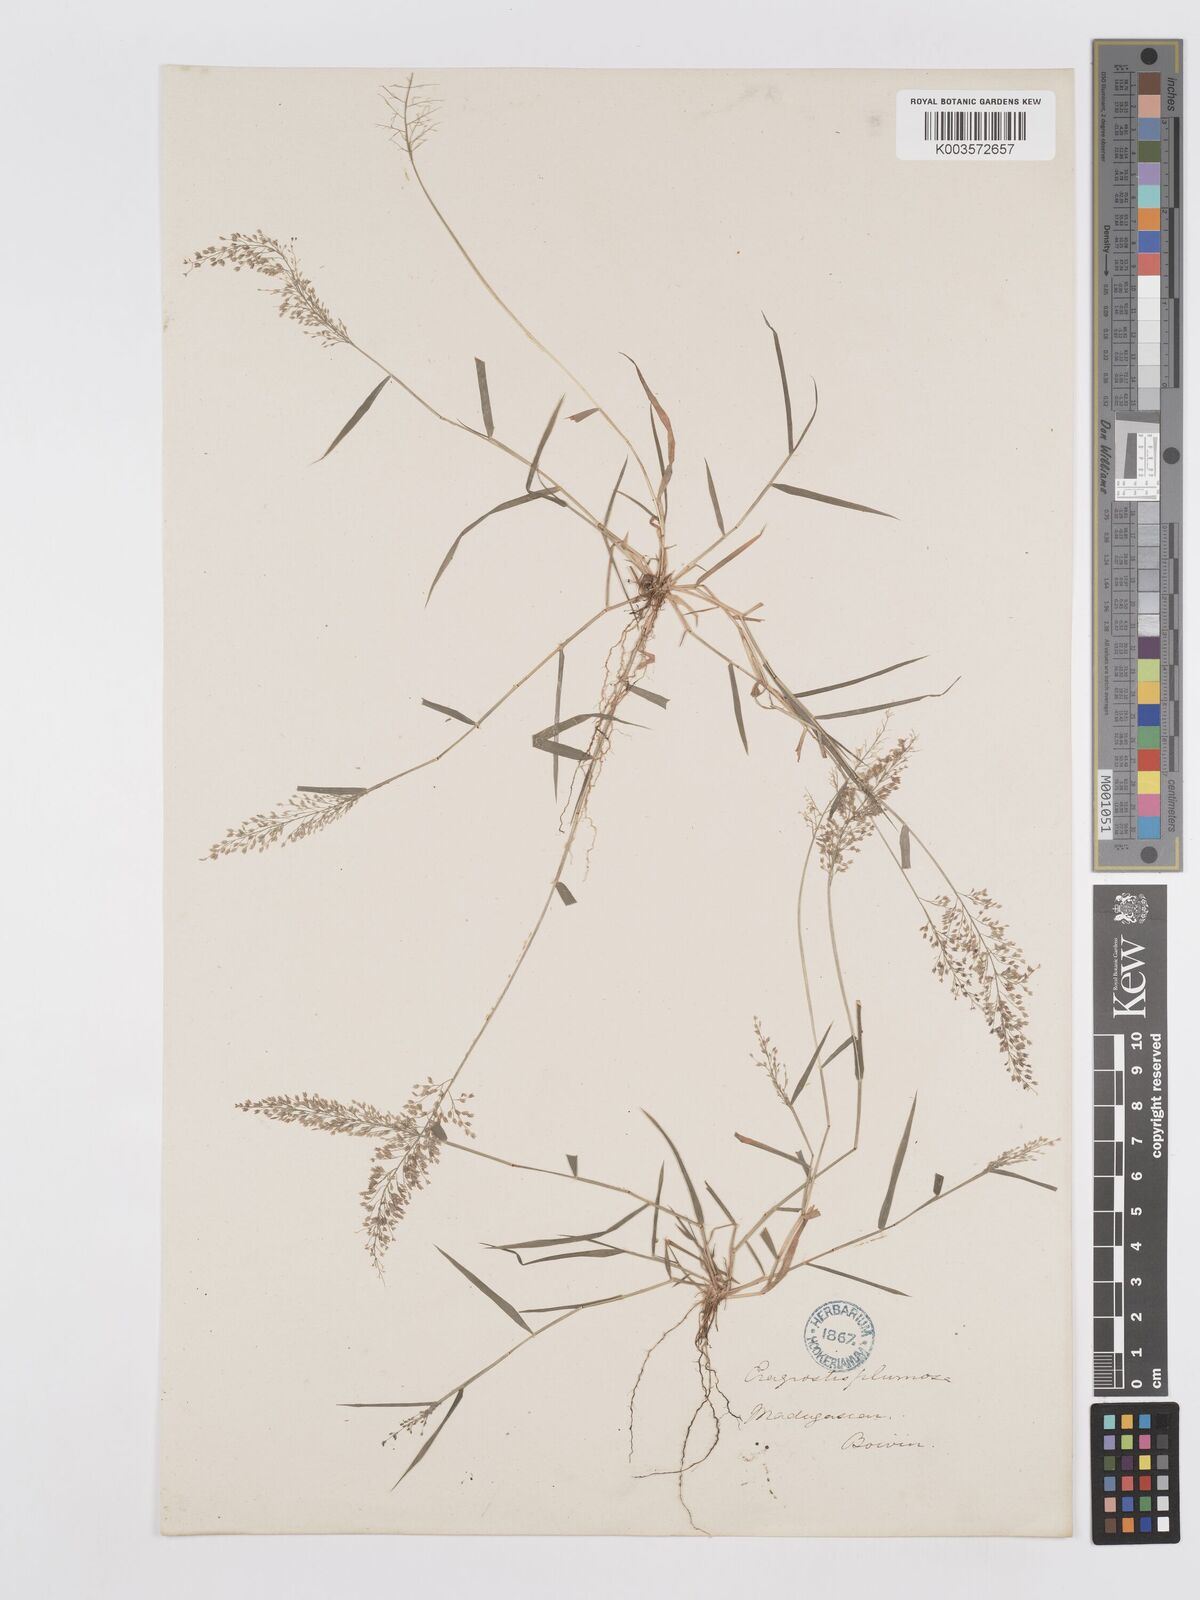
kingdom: Plantae
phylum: Tracheophyta
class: Liliopsida
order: Poales
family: Poaceae
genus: Eragrostis
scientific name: Eragrostis tenella
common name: Japanese lovegrass
